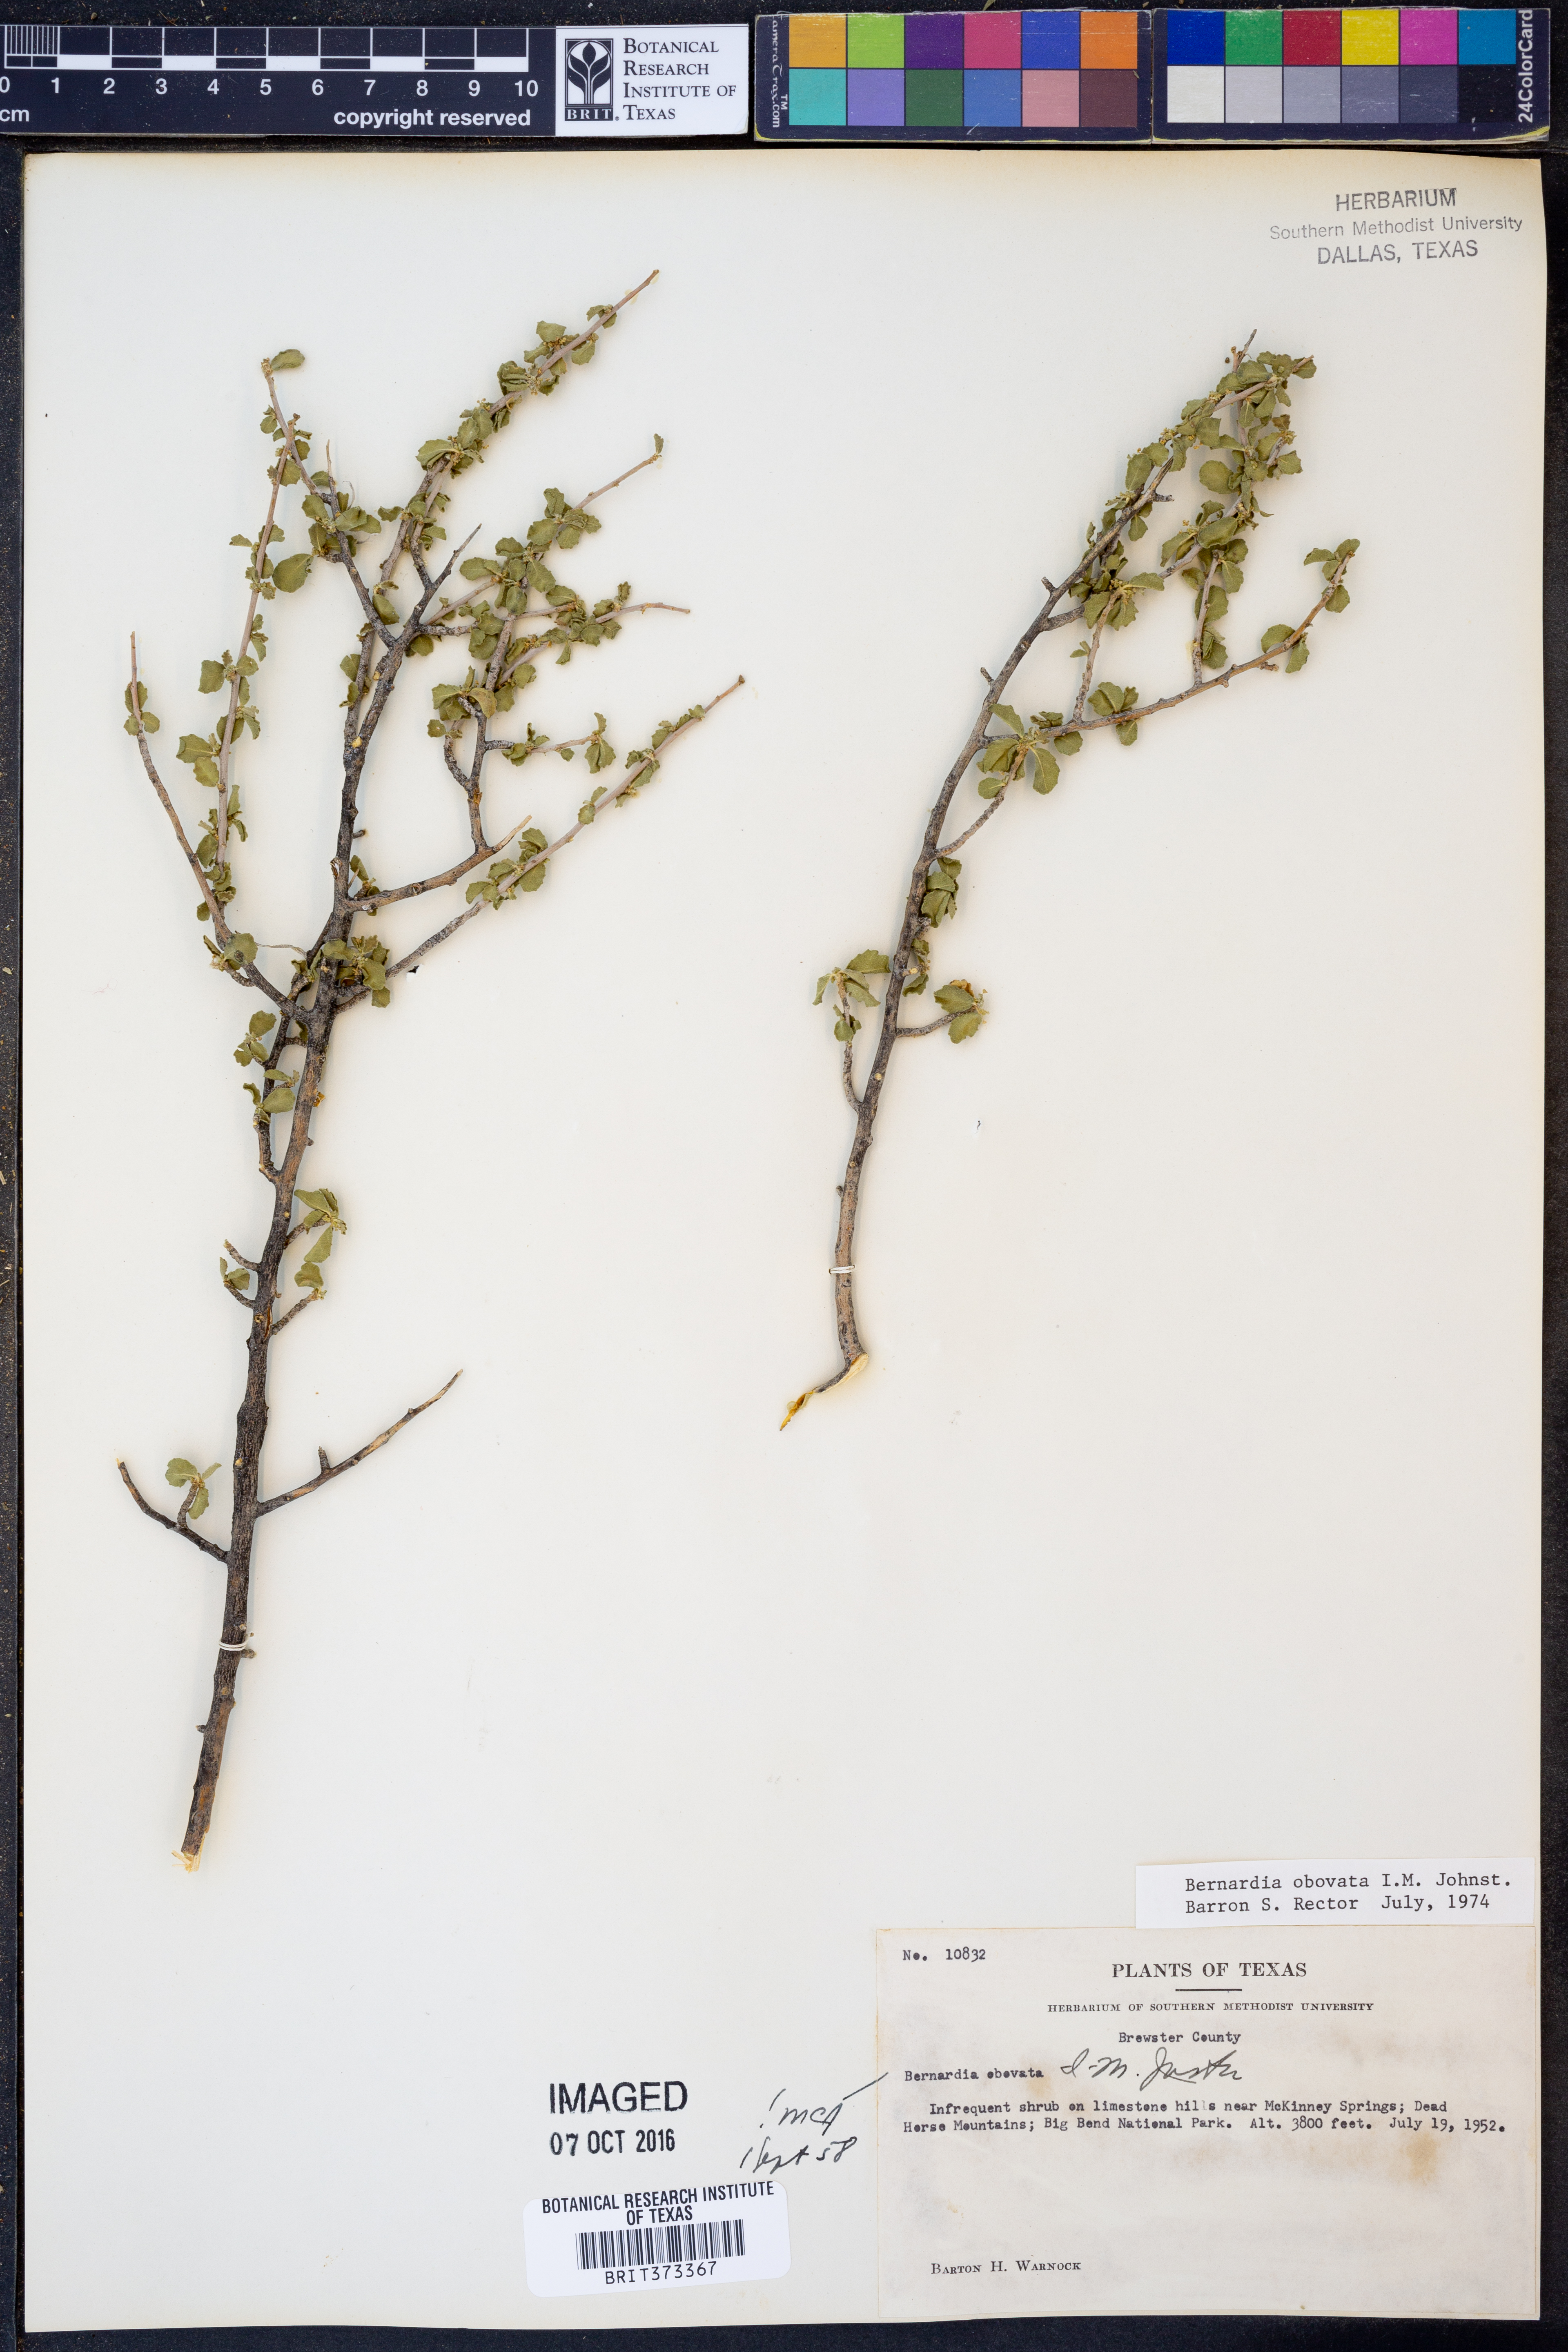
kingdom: Plantae
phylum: Tracheophyta
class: Magnoliopsida
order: Malpighiales
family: Euphorbiaceae
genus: Bernardia
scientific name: Bernardia obovata
